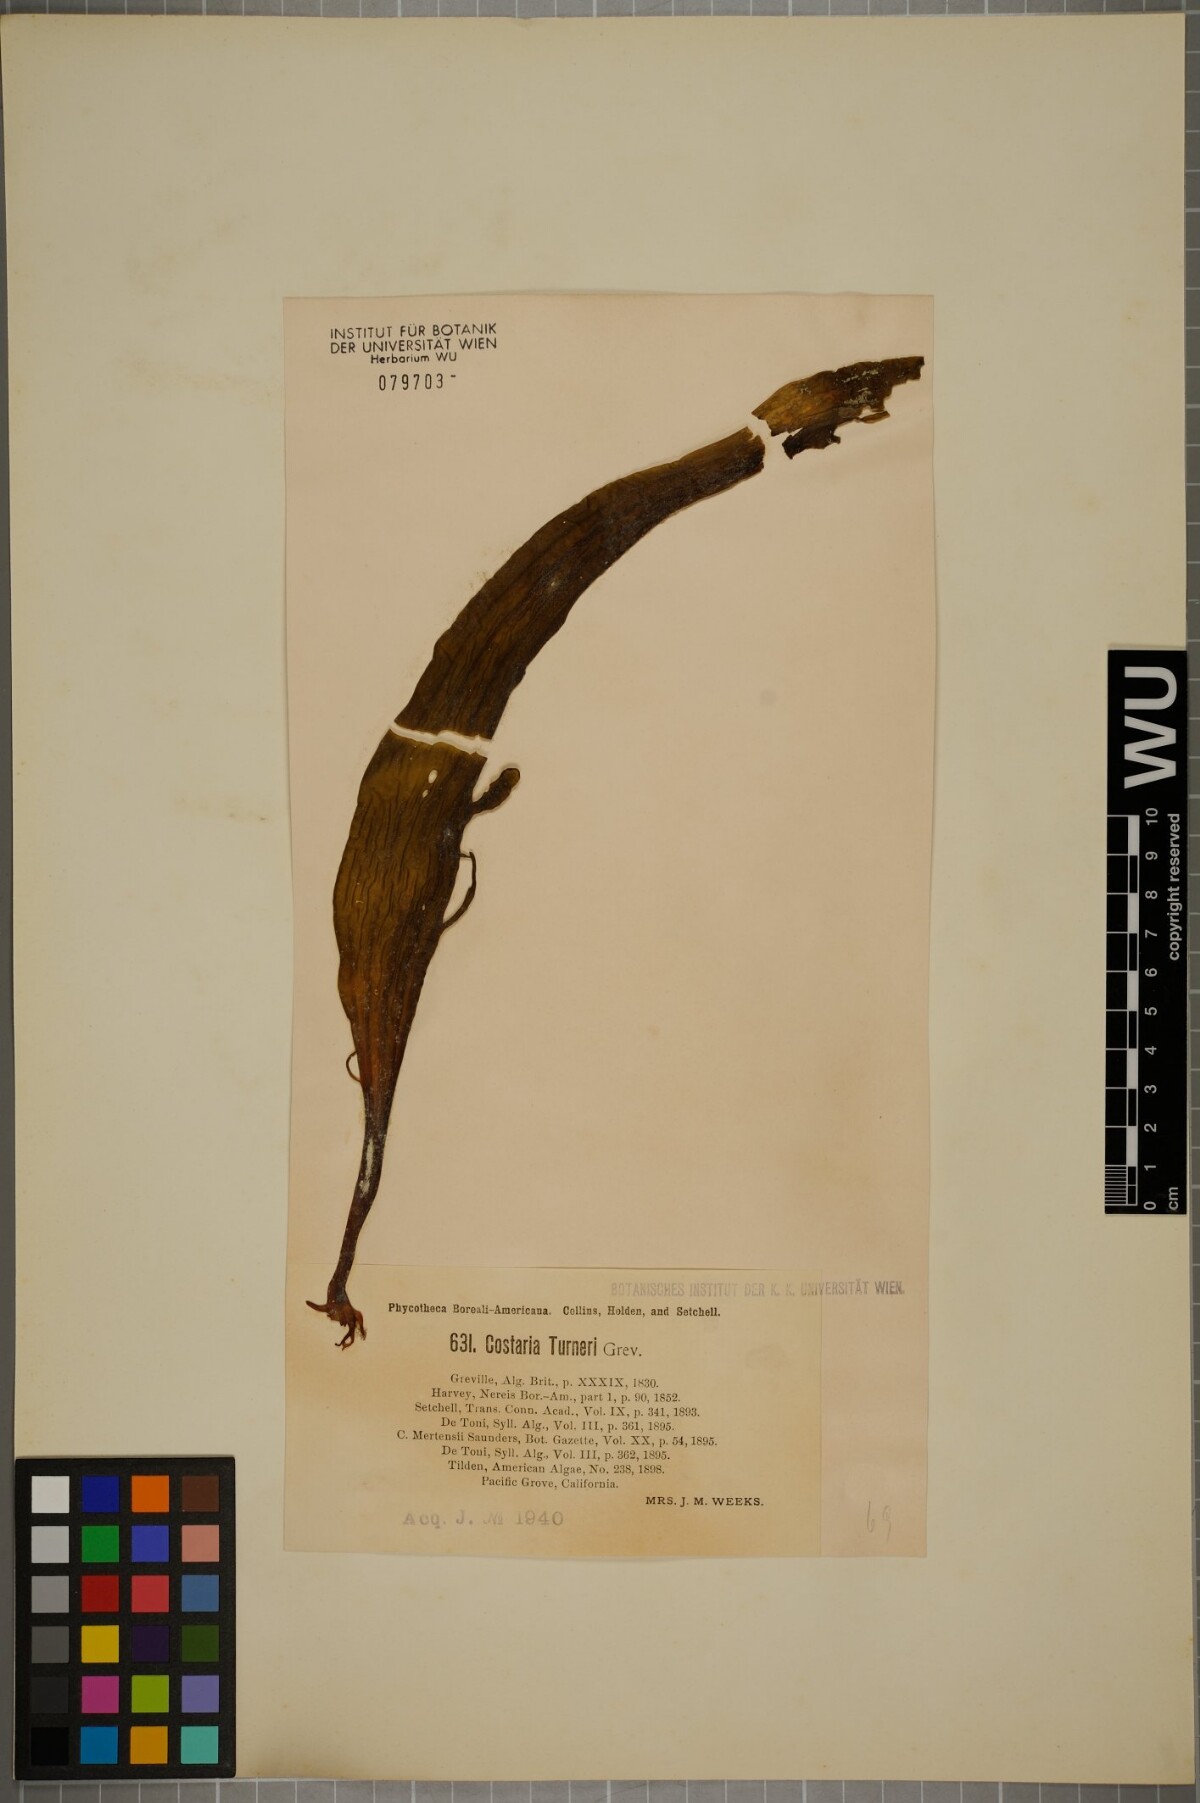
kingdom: Chromista
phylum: Ochrophyta
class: Phaeophyceae
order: Laminariales
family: Costariaceae
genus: Costaria
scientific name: Costaria turneri
